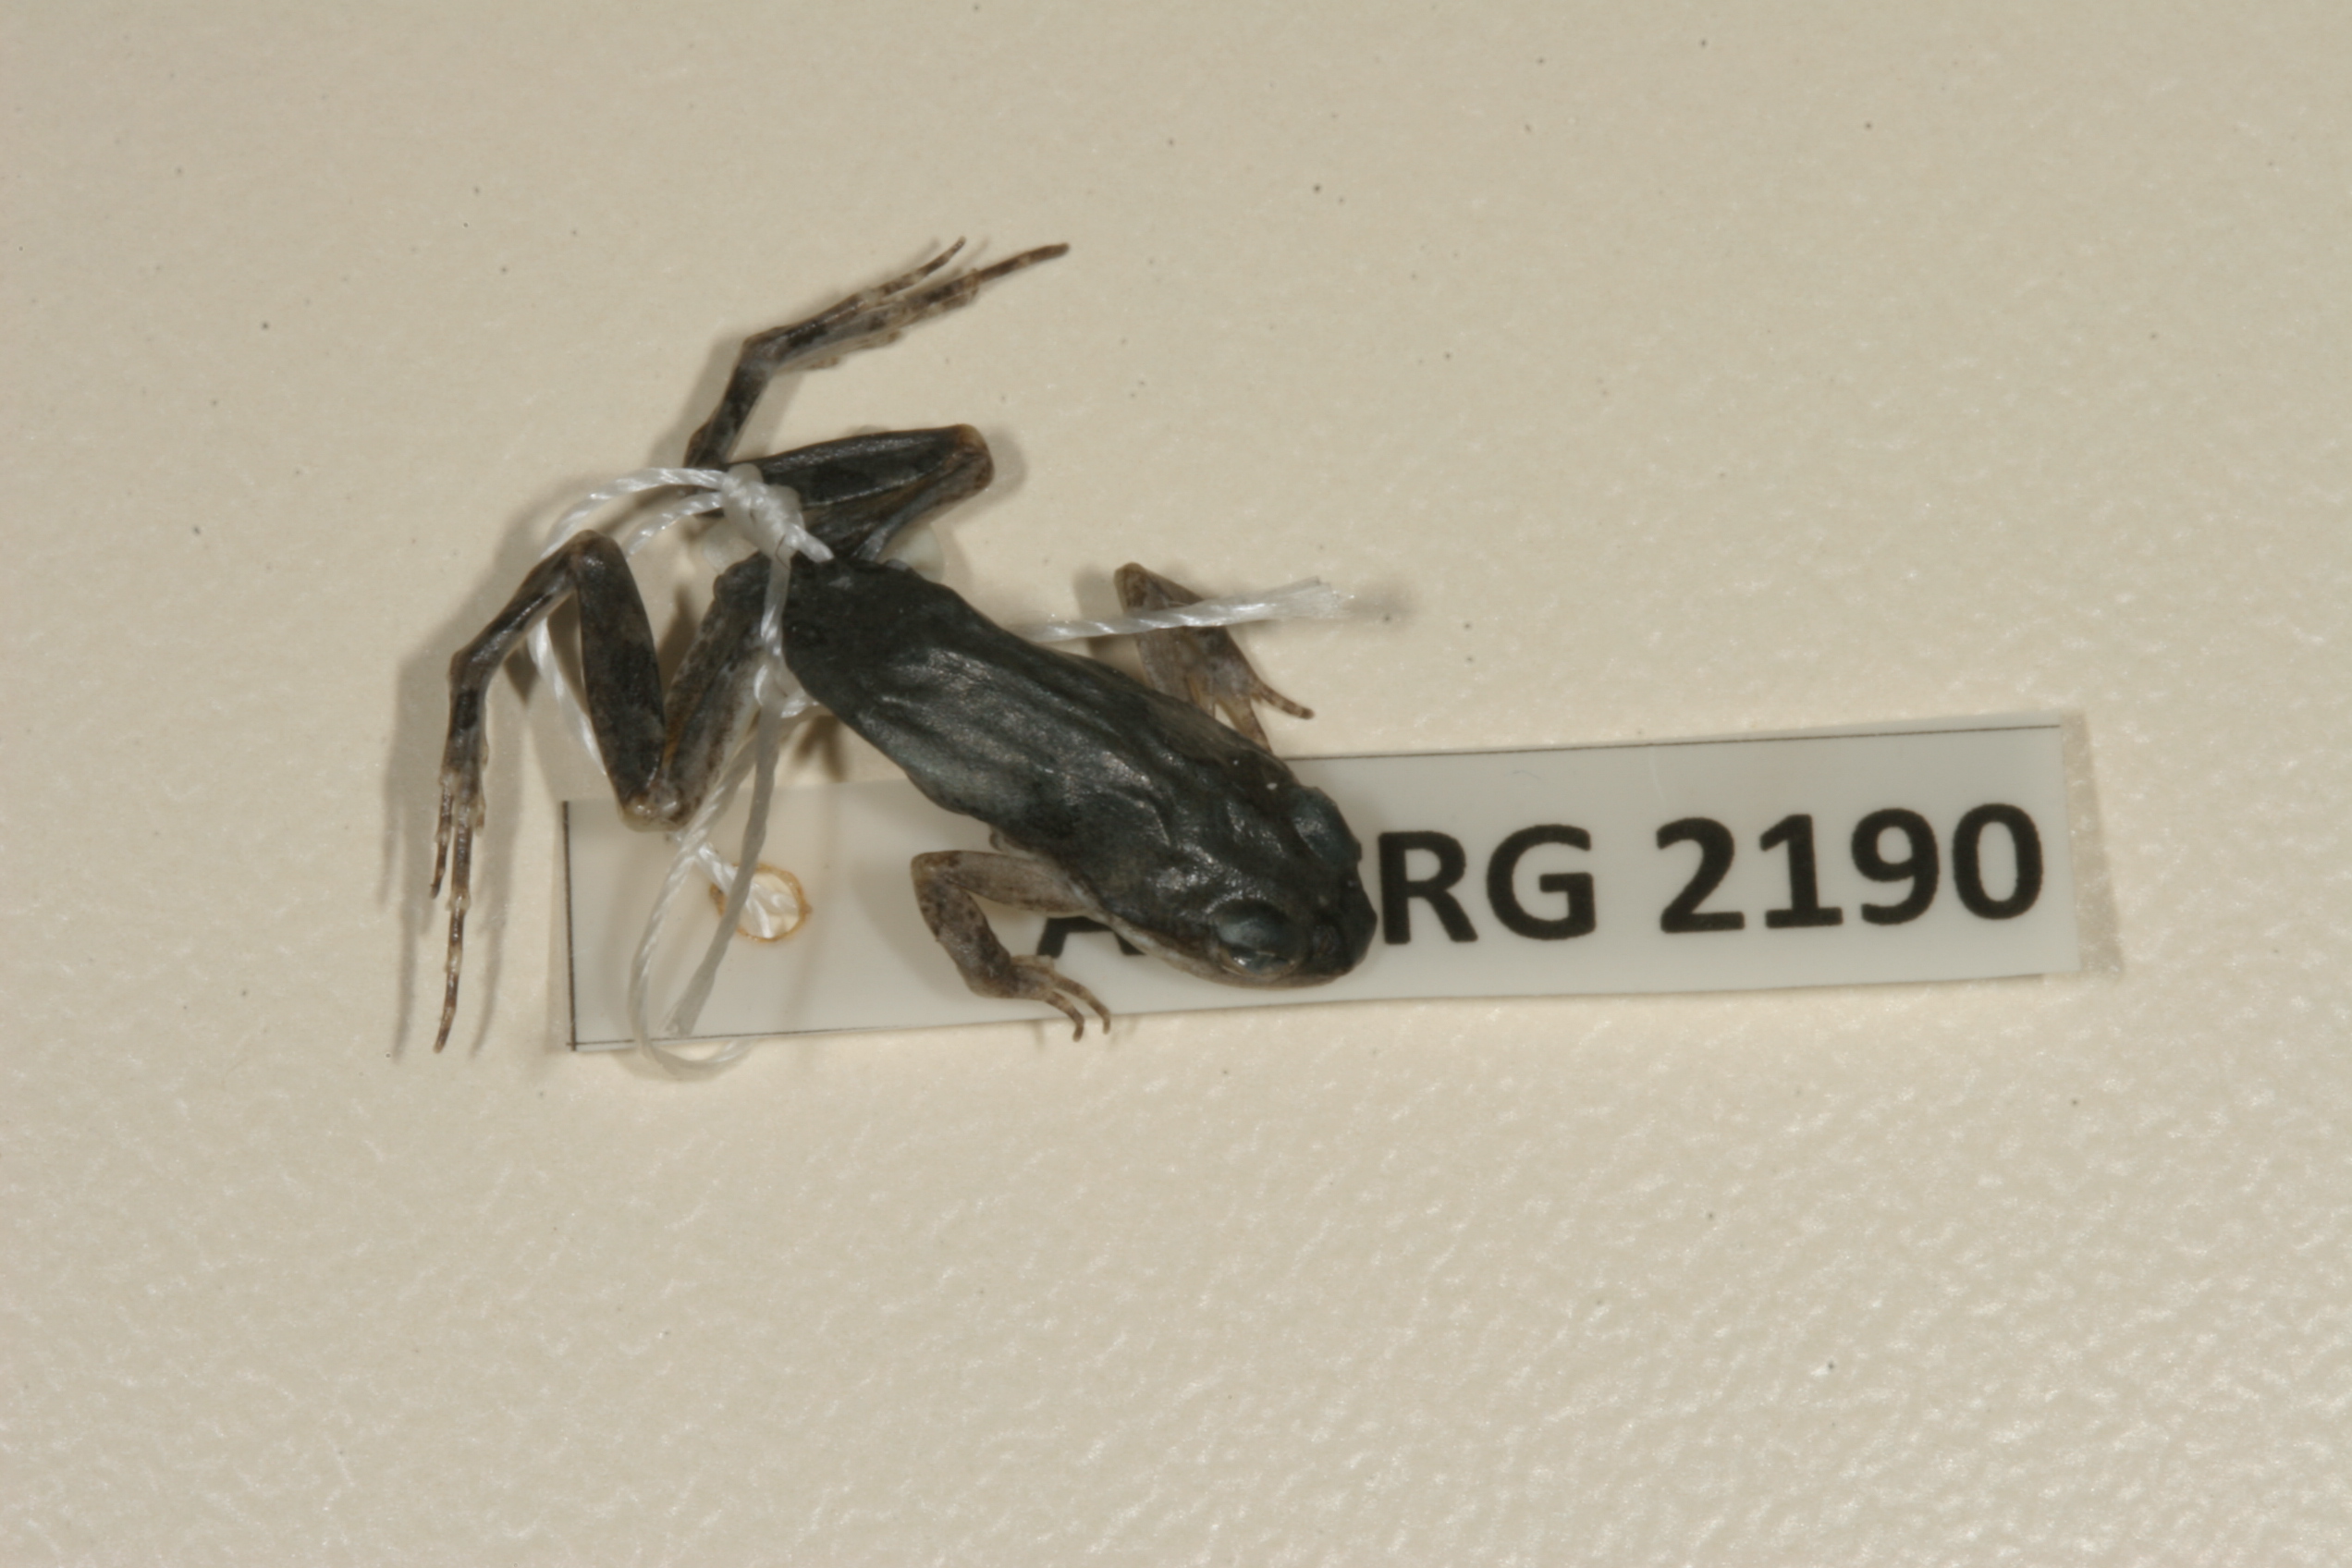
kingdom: Animalia
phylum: Chordata
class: Amphibia
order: Anura
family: Pyxicephalidae
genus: Cacosternum
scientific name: Cacosternum boettgeri
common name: Boettger's frog
